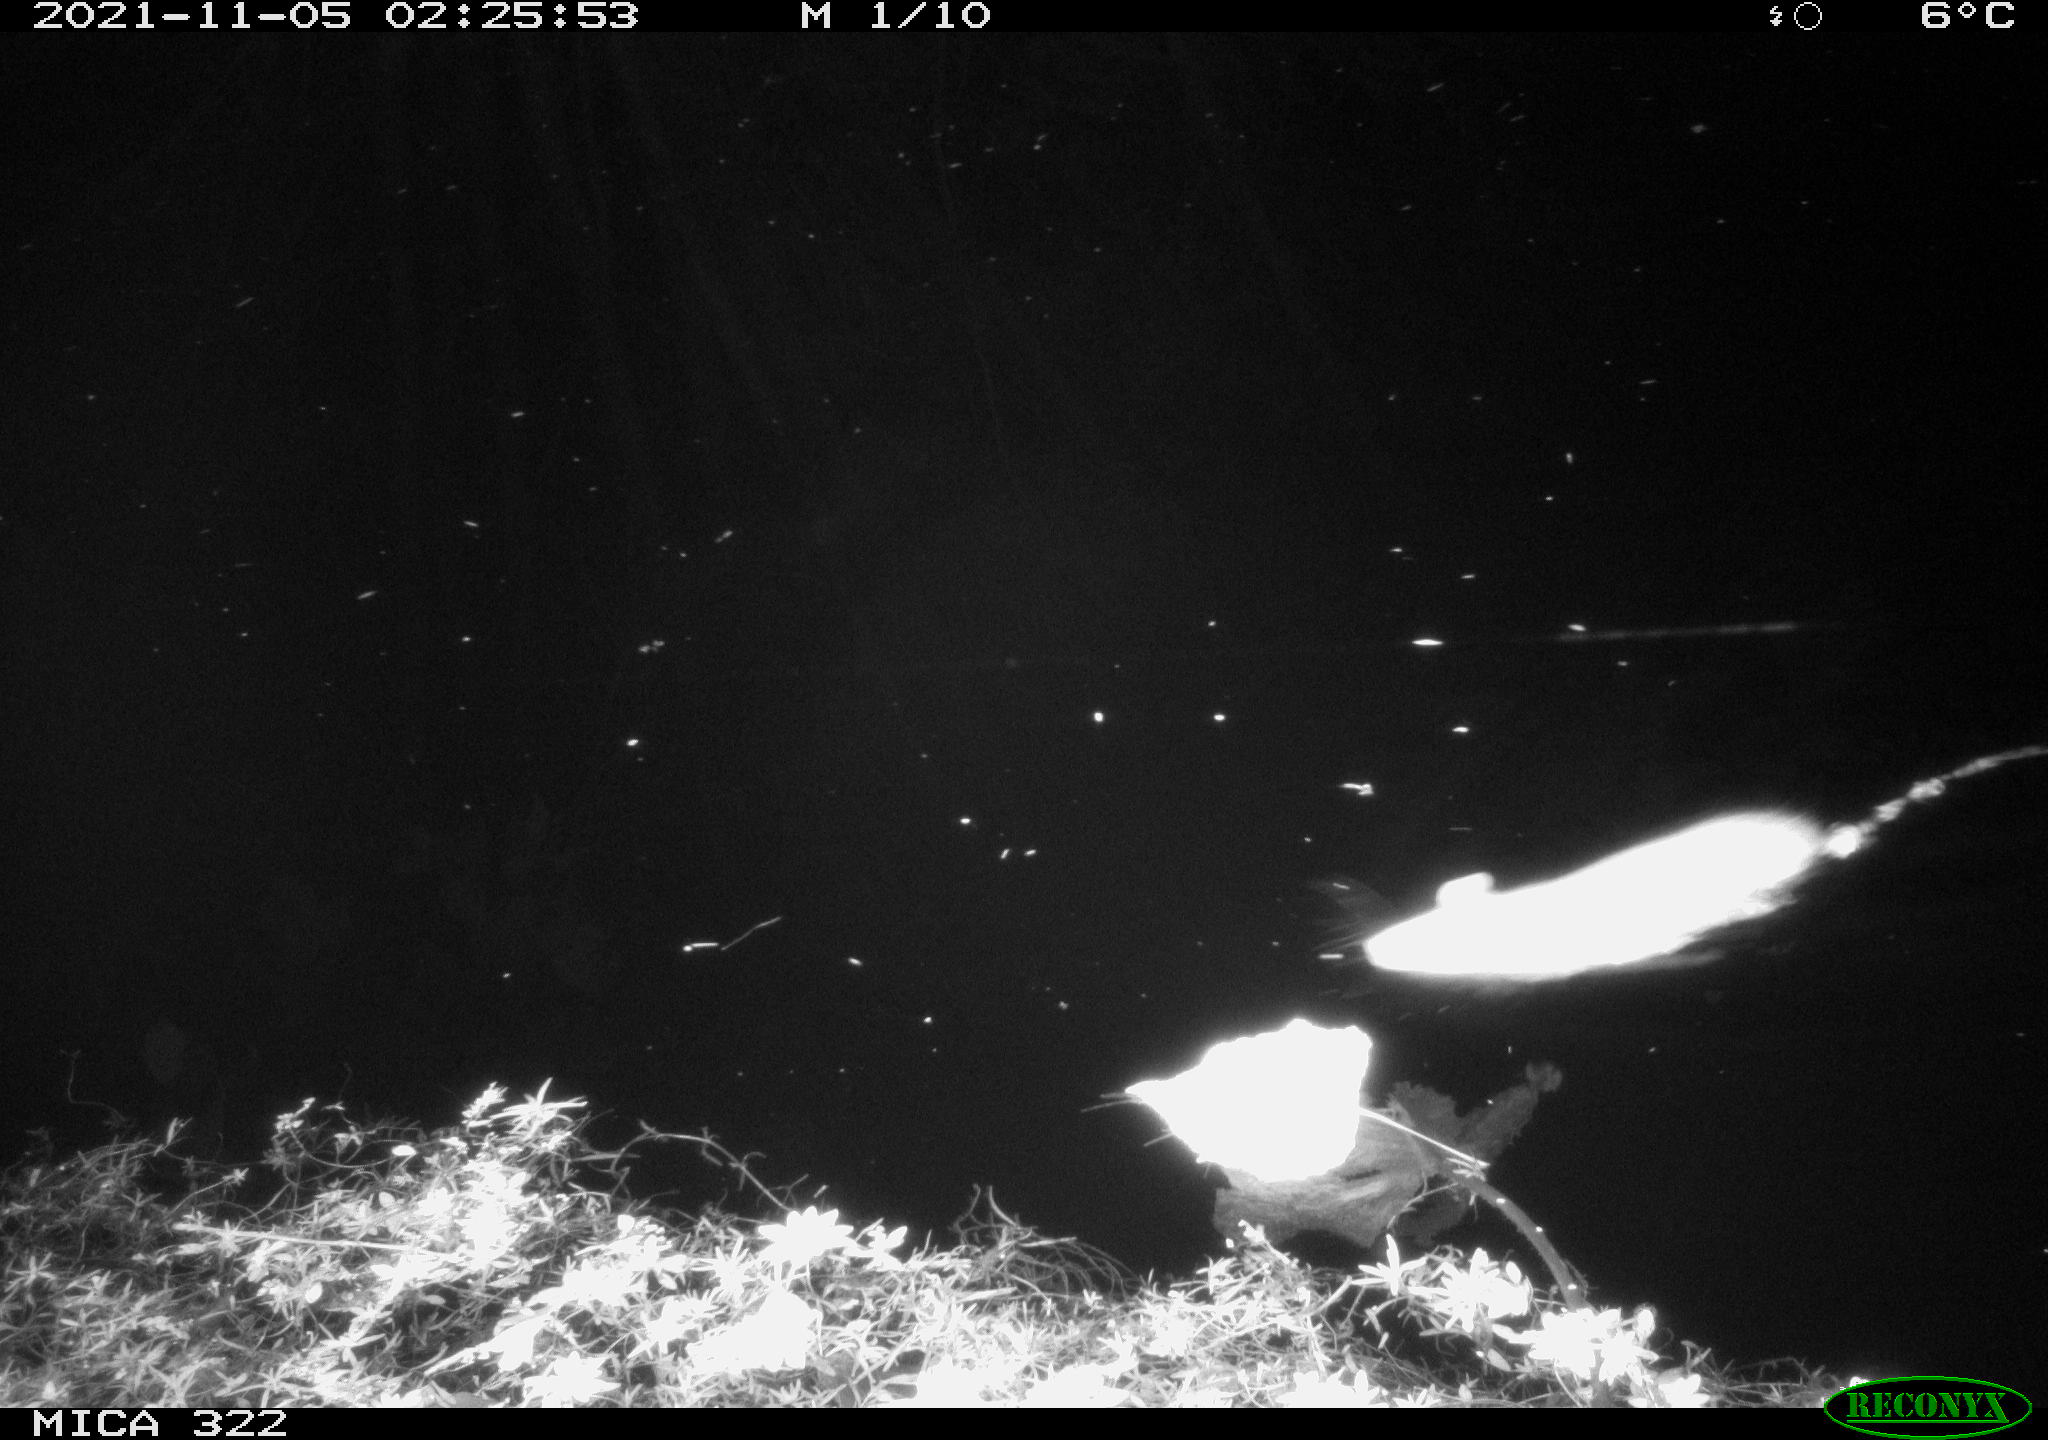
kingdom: Animalia
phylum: Chordata
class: Mammalia
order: Rodentia
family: Muridae
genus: Rattus
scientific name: Rattus norvegicus
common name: Brown rat
